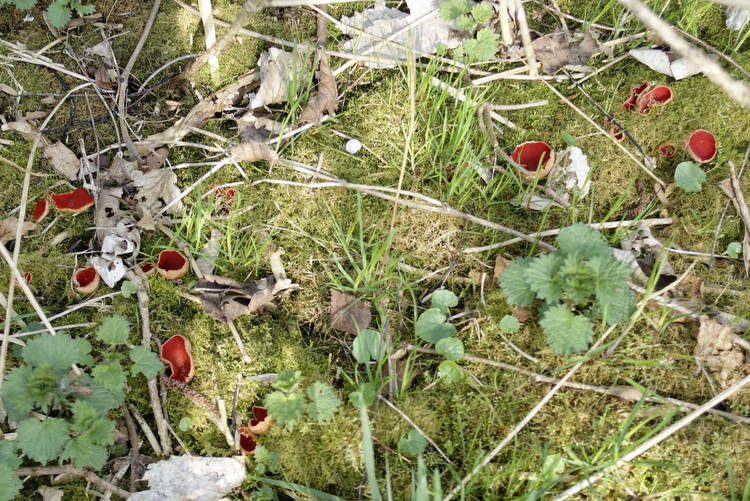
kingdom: Fungi
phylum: Ascomycota
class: Pezizomycetes
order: Pezizales
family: Sarcoscyphaceae
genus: Sarcoscypha
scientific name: Sarcoscypha austriaca
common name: krølhåret pragtbæger
